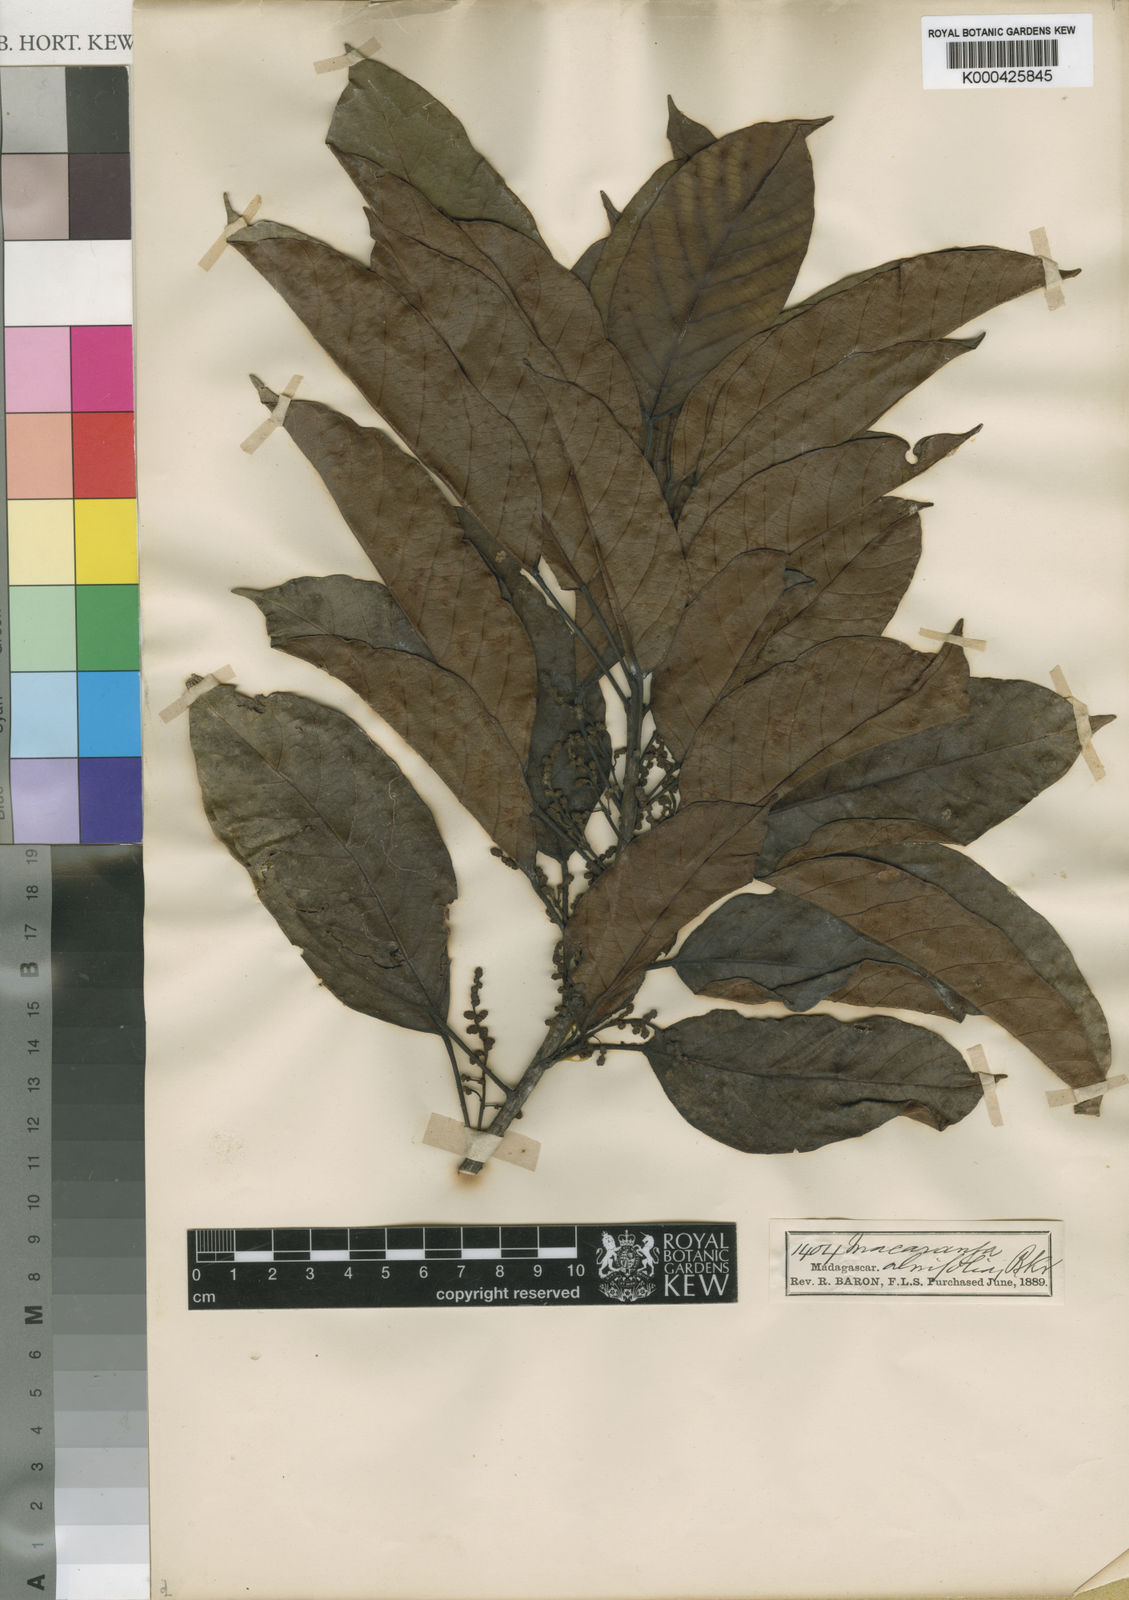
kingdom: Plantae
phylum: Tracheophyta
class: Magnoliopsida
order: Malpighiales
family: Euphorbiaceae
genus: Macaranga
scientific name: Macaranga alnifolia
